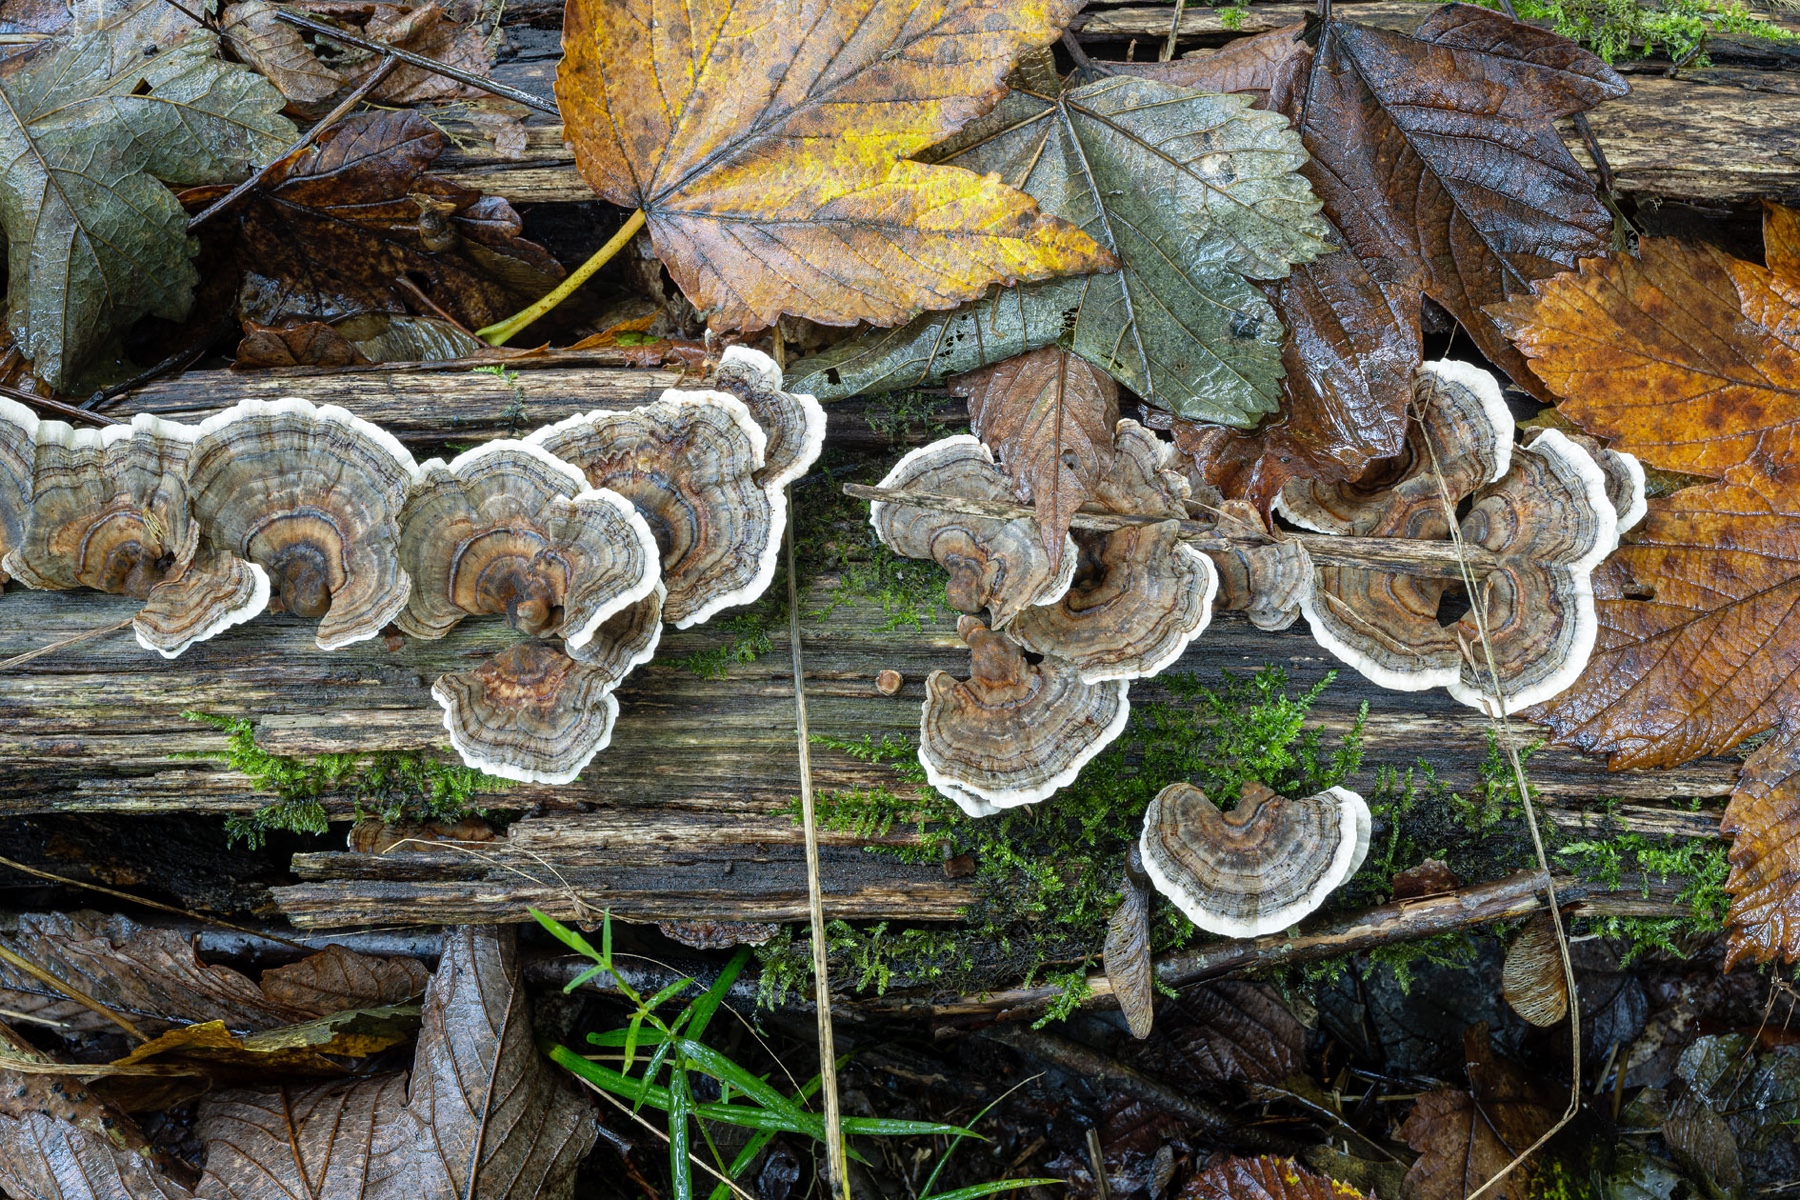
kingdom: Fungi
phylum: Basidiomycota
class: Agaricomycetes
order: Polyporales
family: Polyporaceae
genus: Trametes
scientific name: Trametes versicolor
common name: broget læderporesvamp
